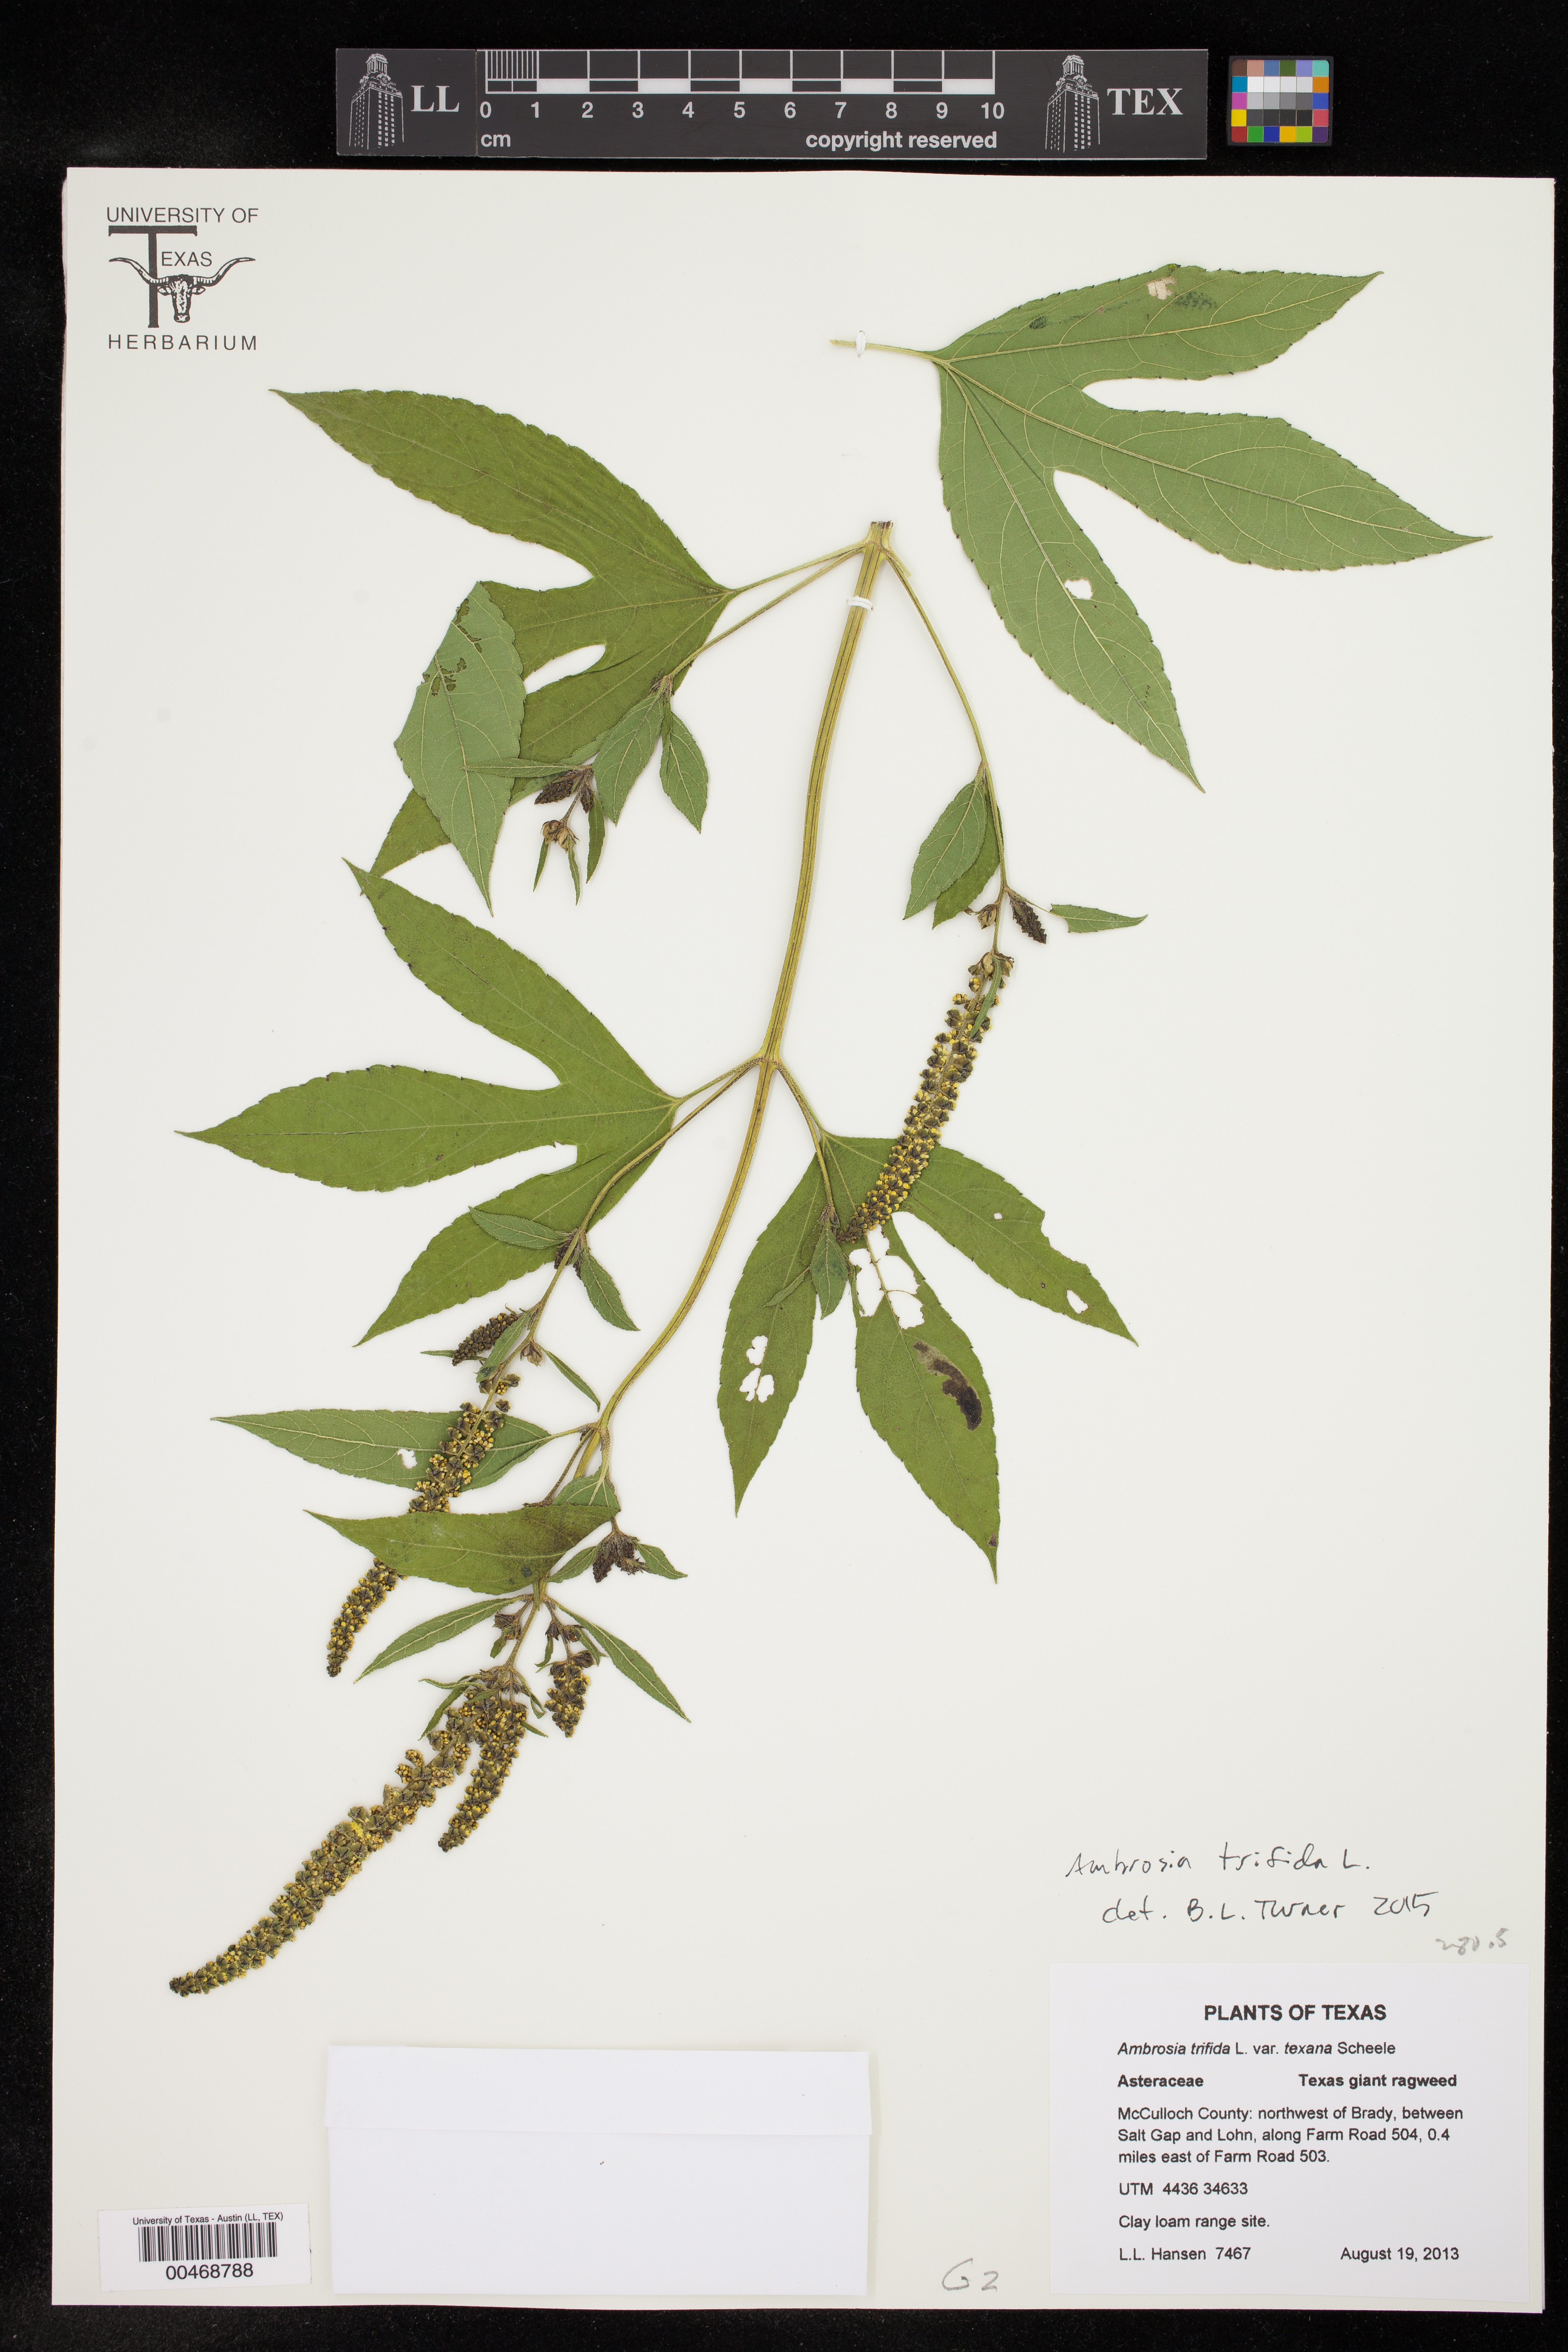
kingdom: Plantae
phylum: Tracheophyta
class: Magnoliopsida
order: Asterales
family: Asteraceae
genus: Ambrosia
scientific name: Ambrosia trifida
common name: Giant ragweed
